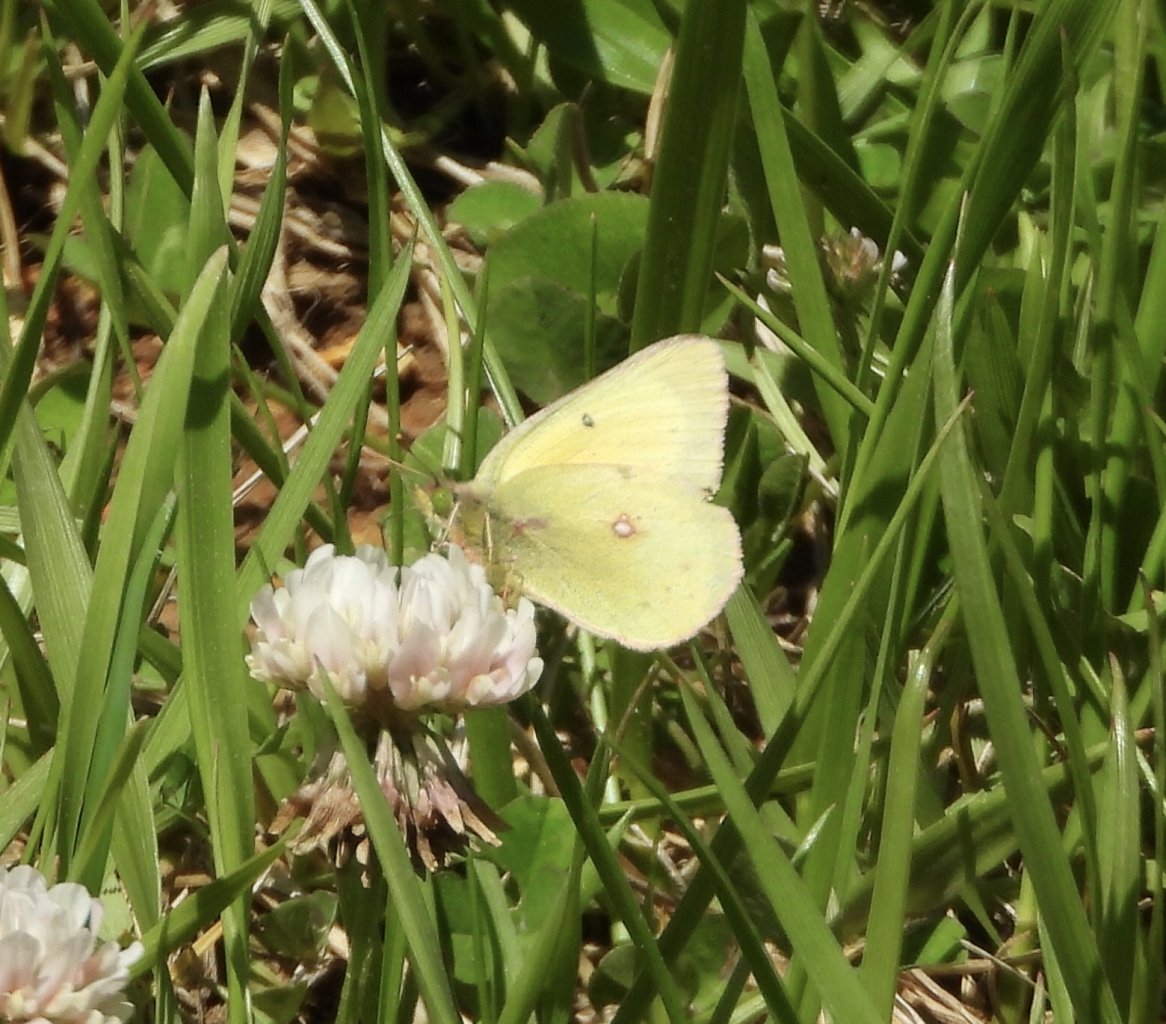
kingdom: Animalia
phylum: Arthropoda
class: Insecta
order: Lepidoptera
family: Pieridae
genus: Colias
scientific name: Colias philodice
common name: Clouded Sulphur
